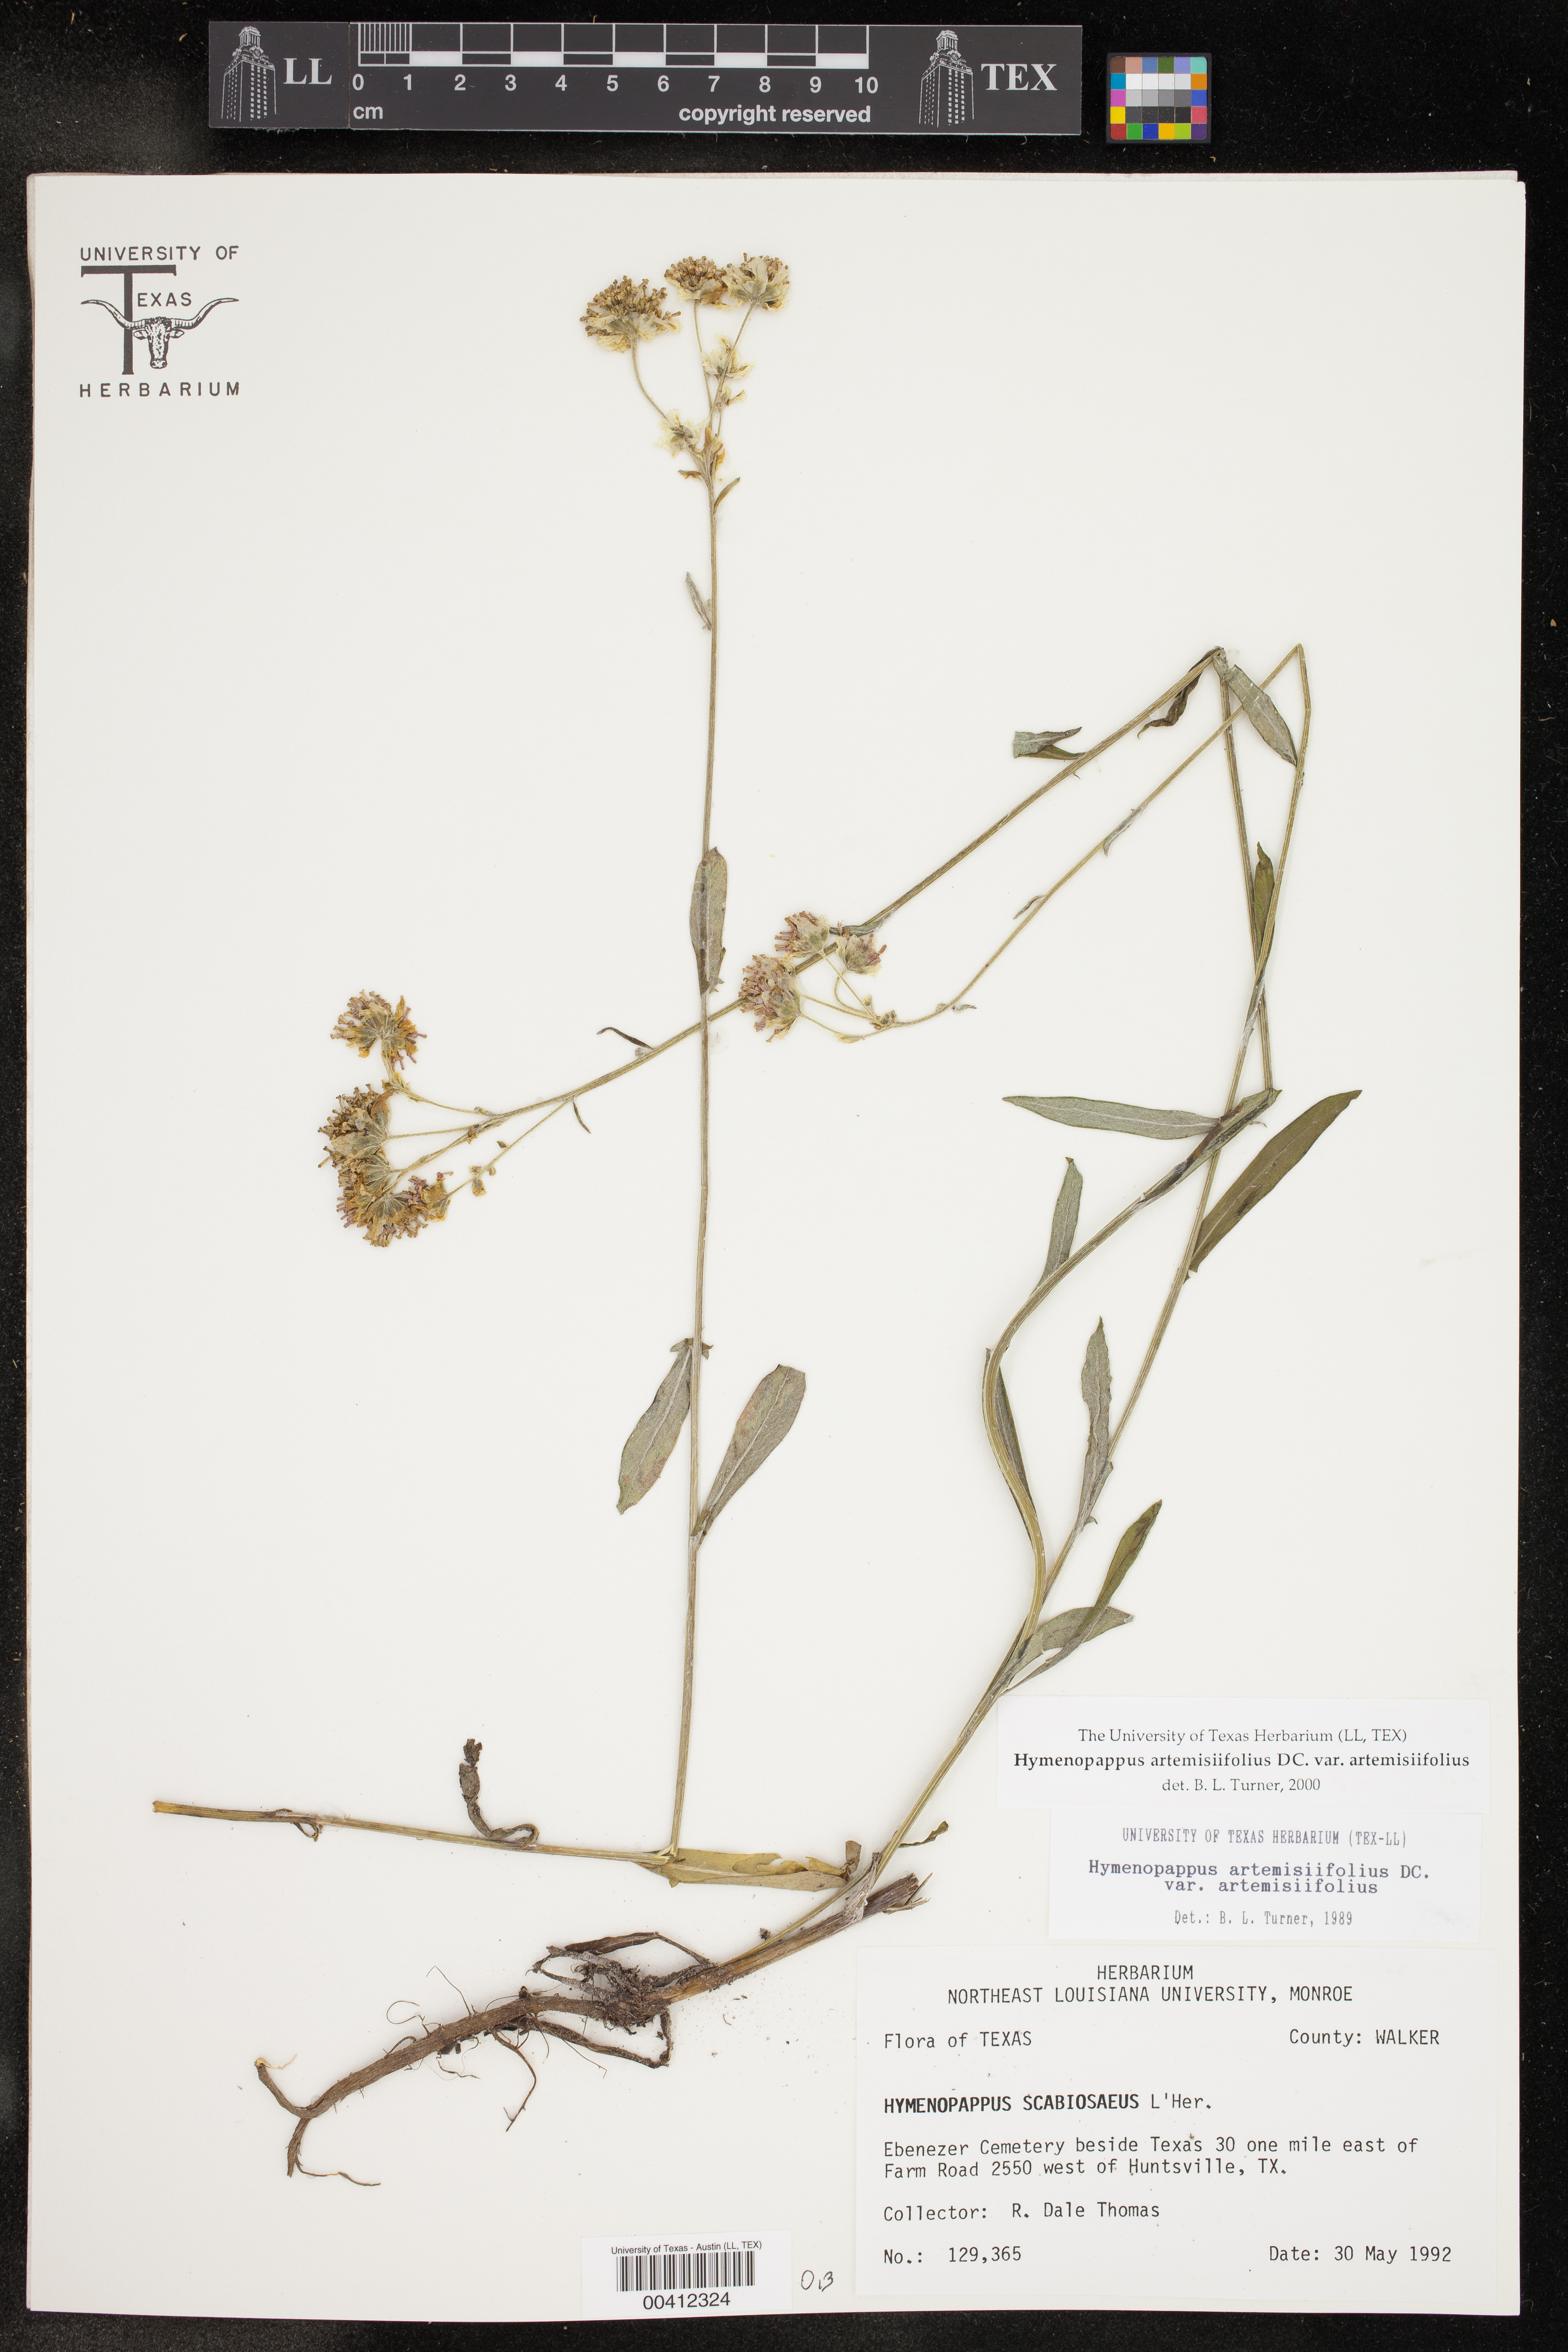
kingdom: Plantae
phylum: Tracheophyta
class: Magnoliopsida
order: Asterales
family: Asteraceae
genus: Hymenopappus
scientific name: Hymenopappus artemisiifolius
